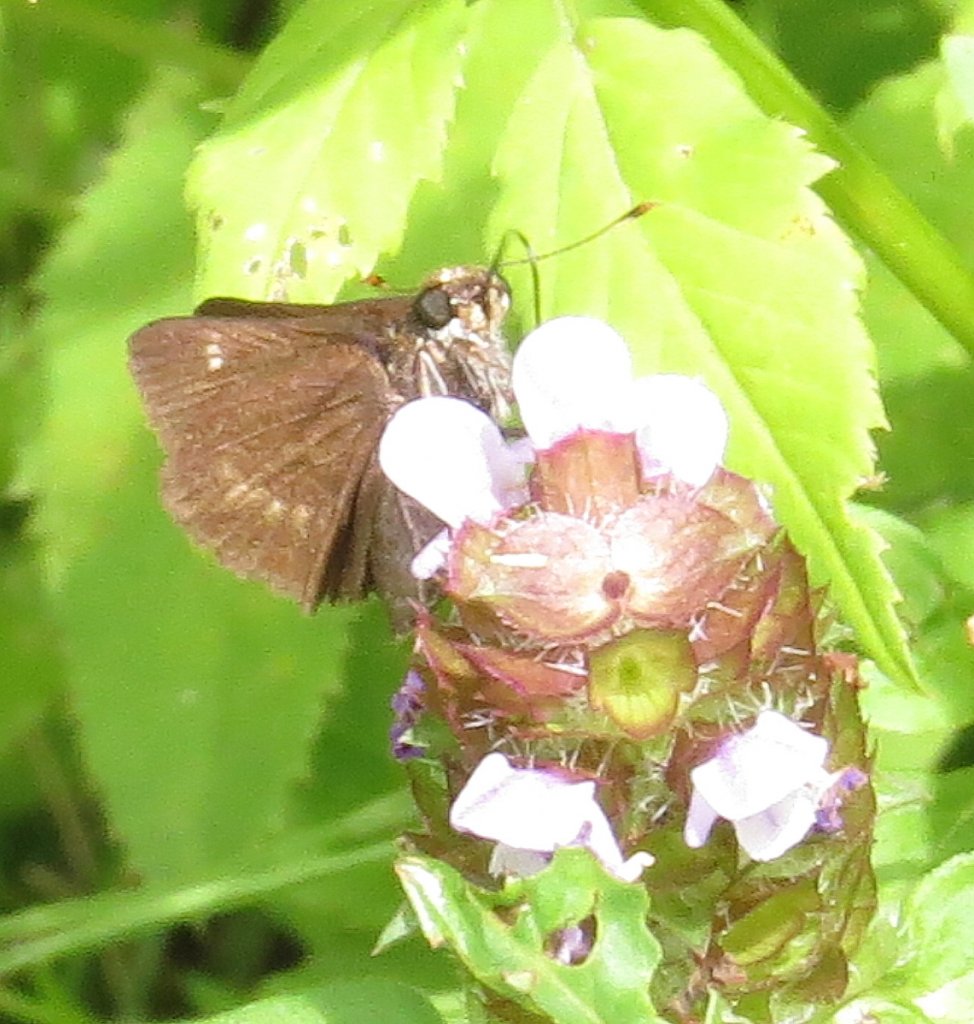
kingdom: Animalia
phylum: Arthropoda
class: Insecta
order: Lepidoptera
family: Hesperiidae
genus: Polites
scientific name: Polites egeremet
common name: Northern Broken-Dash
